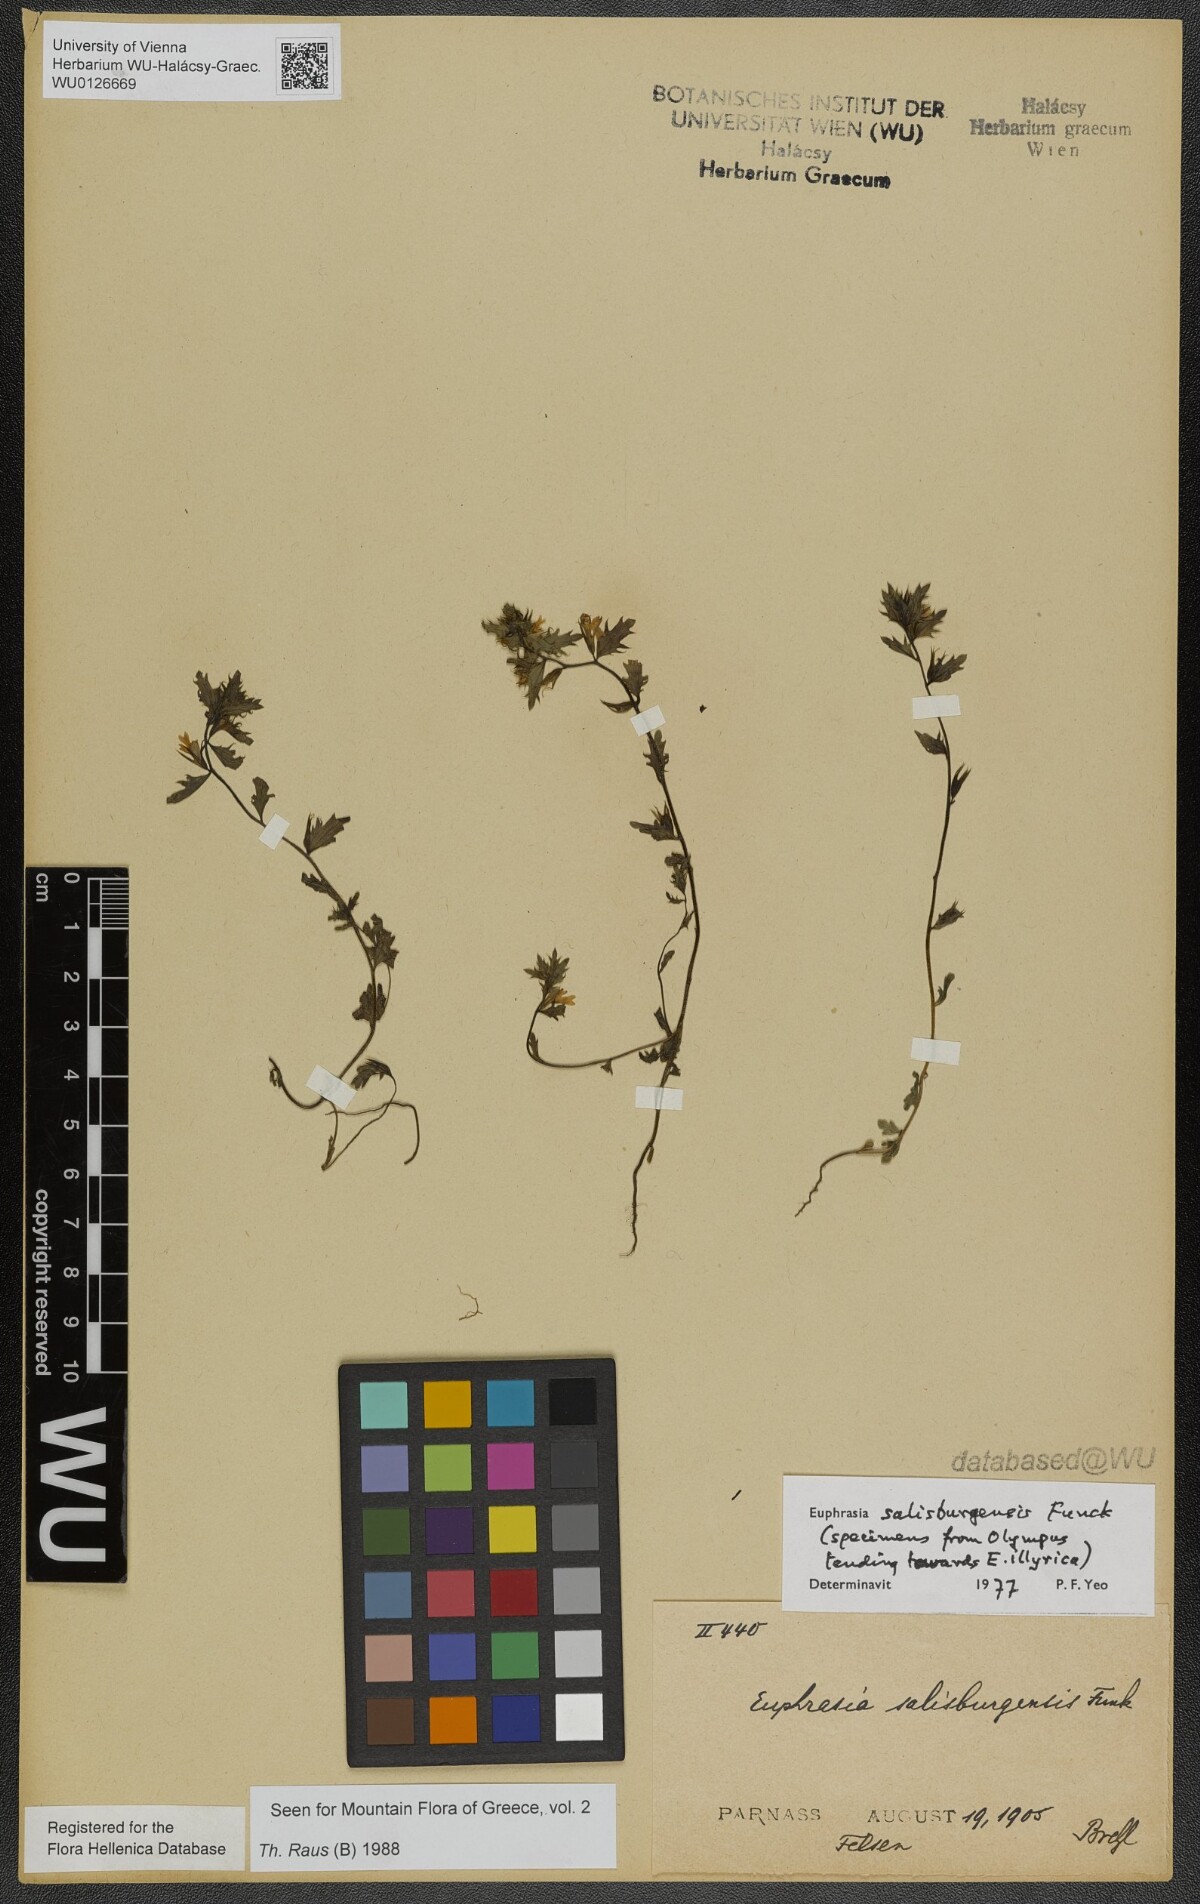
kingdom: Plantae
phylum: Tracheophyta
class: Magnoliopsida
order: Lamiales
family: Orobanchaceae
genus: Euphrasia
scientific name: Euphrasia salisburgensis
